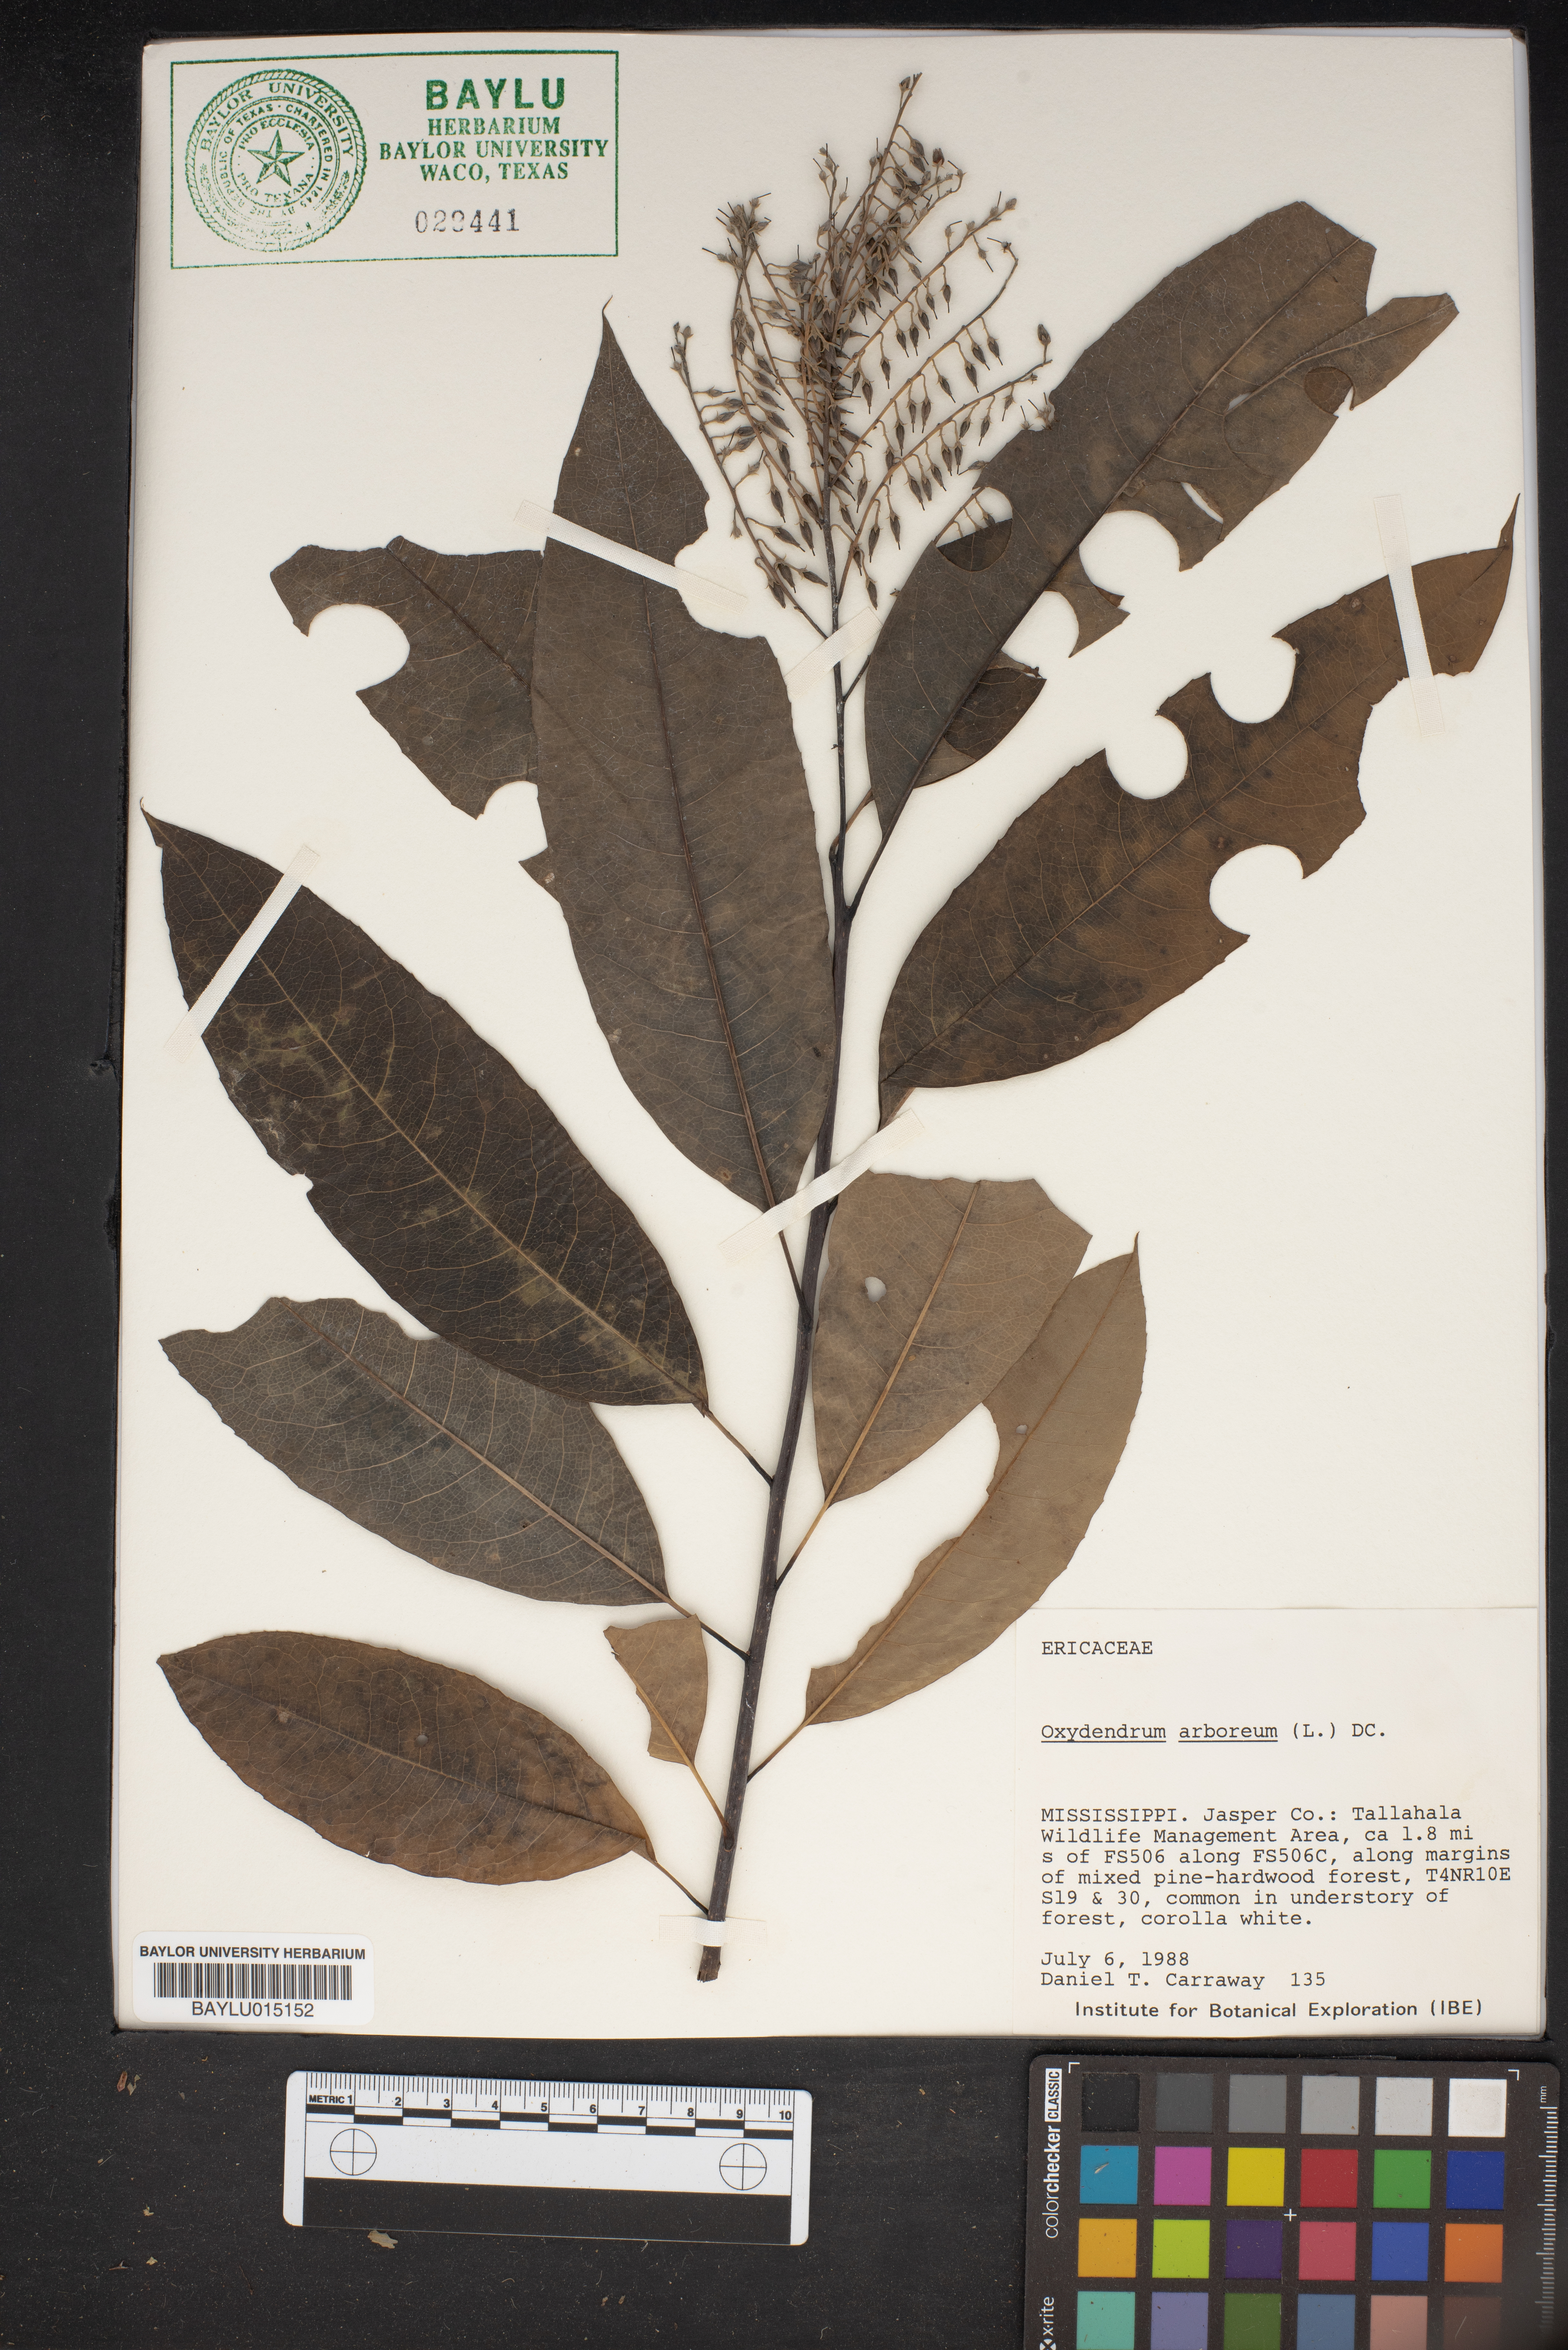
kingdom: Plantae
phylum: Tracheophyta
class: Magnoliopsida
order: Ericales
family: Ericaceae
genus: Oxydendrum
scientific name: Oxydendrum arboreum
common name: Sourwood
